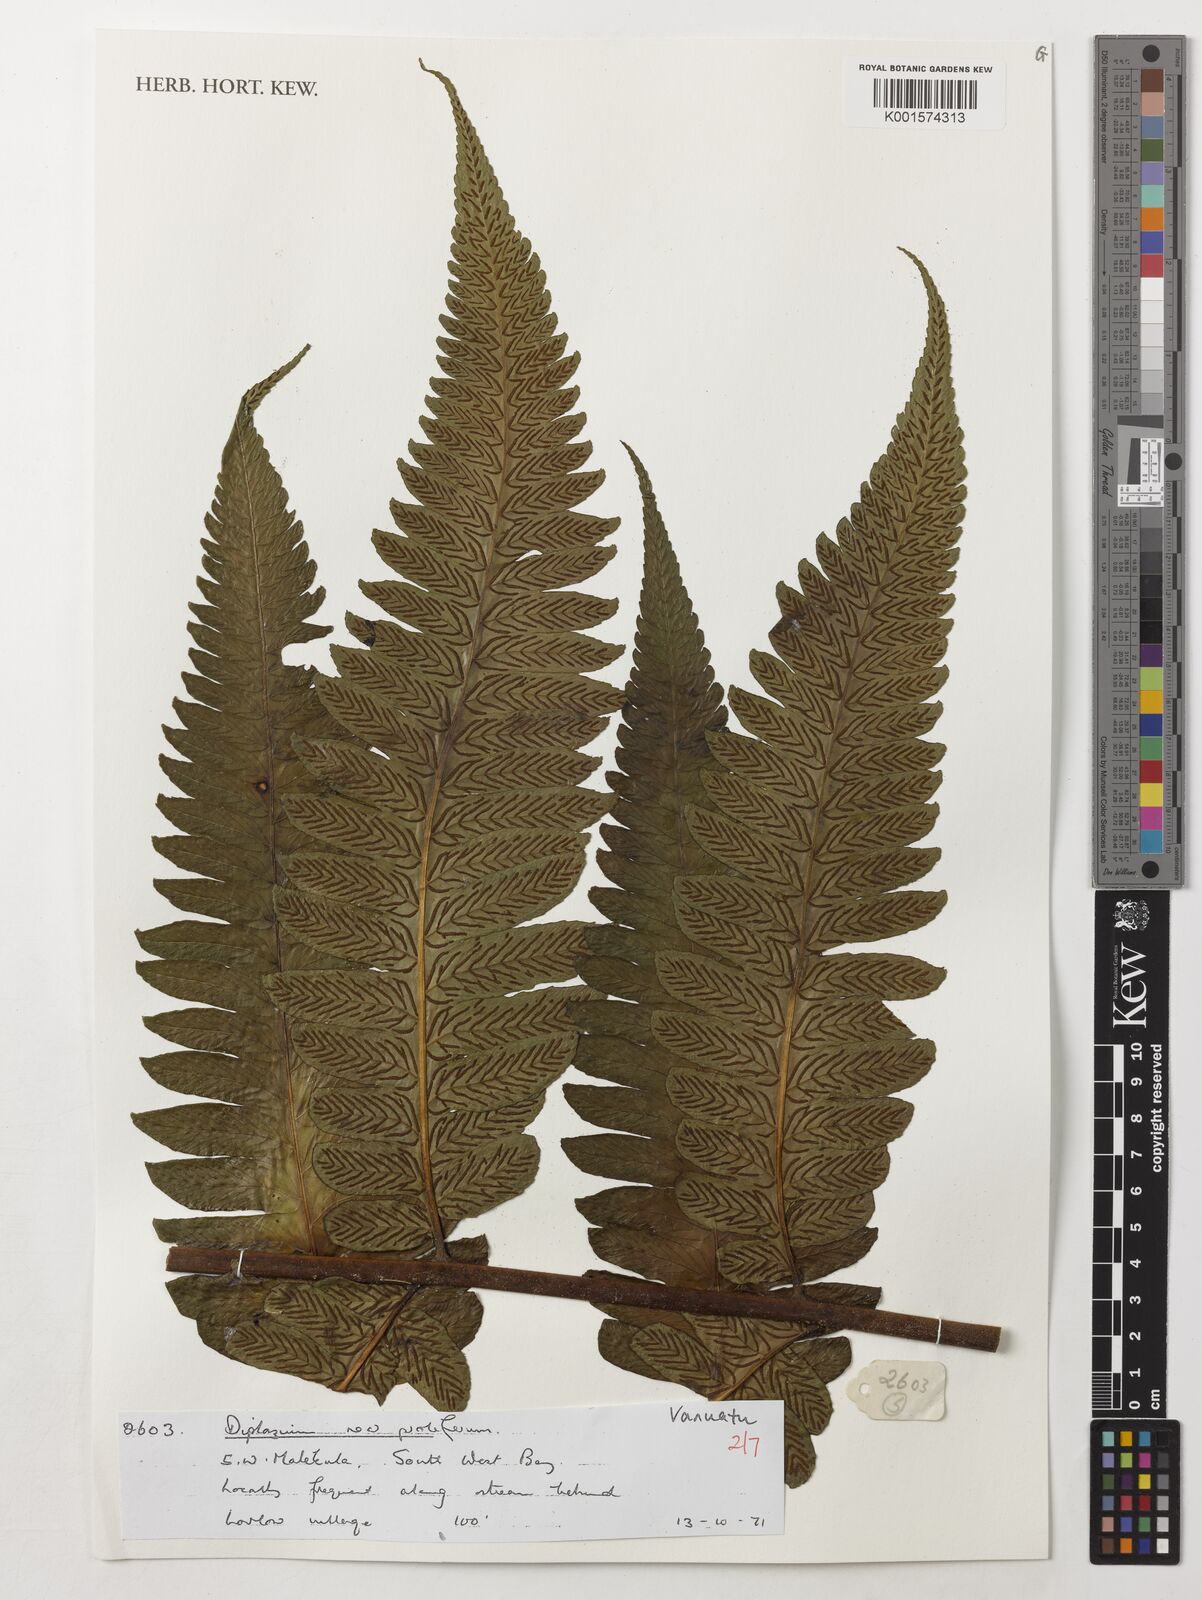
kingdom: Plantae
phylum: Tracheophyta
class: Polypodiopsida
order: Polypodiales
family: Athyriaceae
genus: Diplazium
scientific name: Diplazium proliferum
